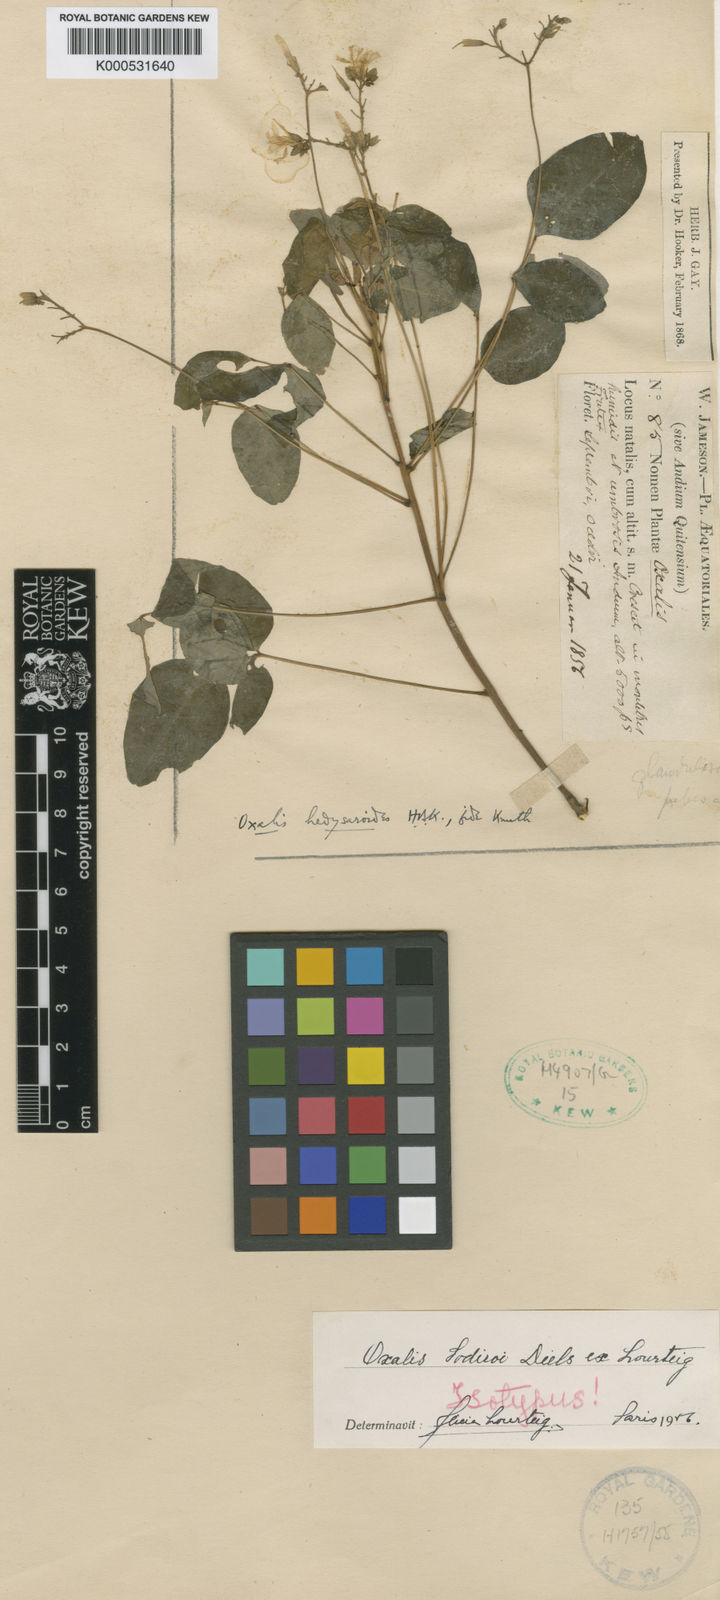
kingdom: Plantae
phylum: Tracheophyta
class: Magnoliopsida
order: Oxalidales
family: Oxalidaceae
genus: Oxalis
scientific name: Oxalis
